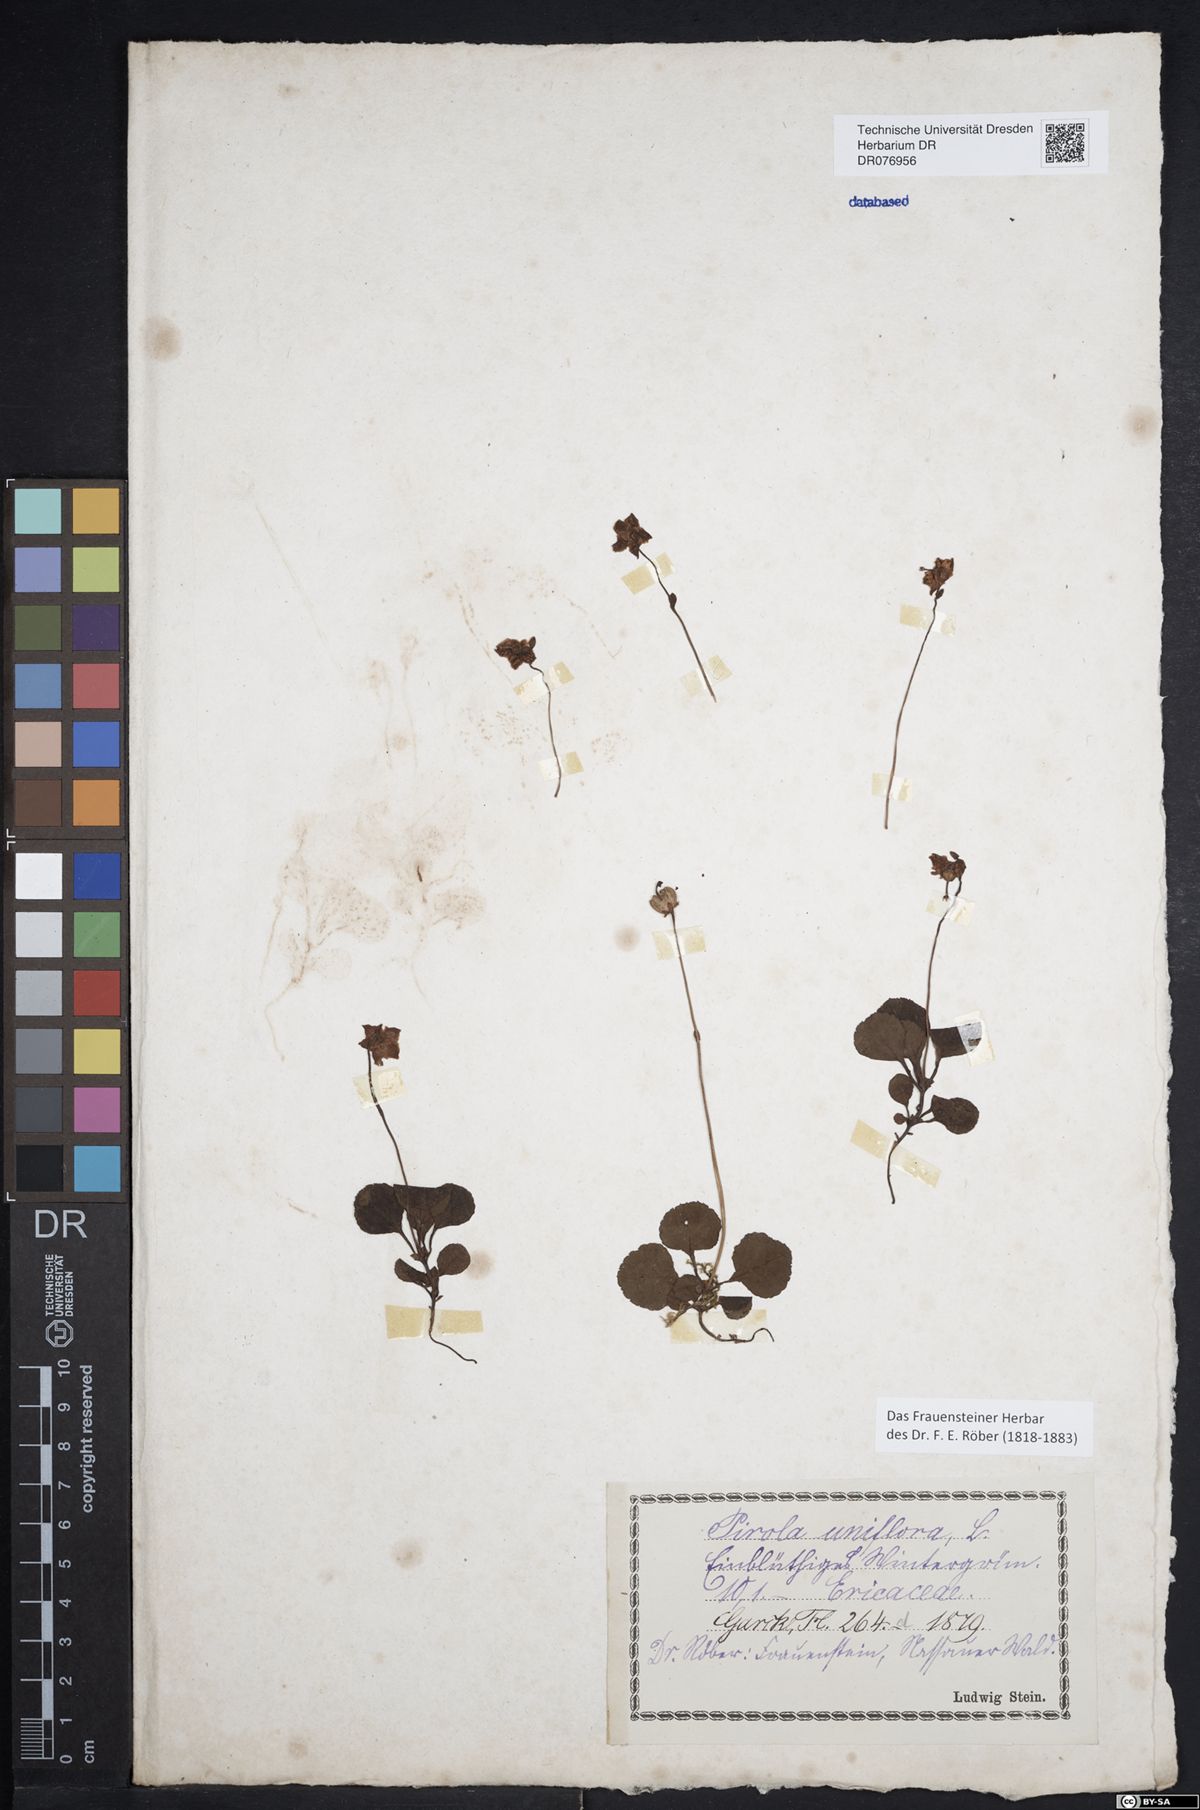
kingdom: Plantae
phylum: Tracheophyta
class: Magnoliopsida
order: Ericales
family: Ericaceae
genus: Moneses
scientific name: Moneses uniflora
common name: One-flowered wintergreen
